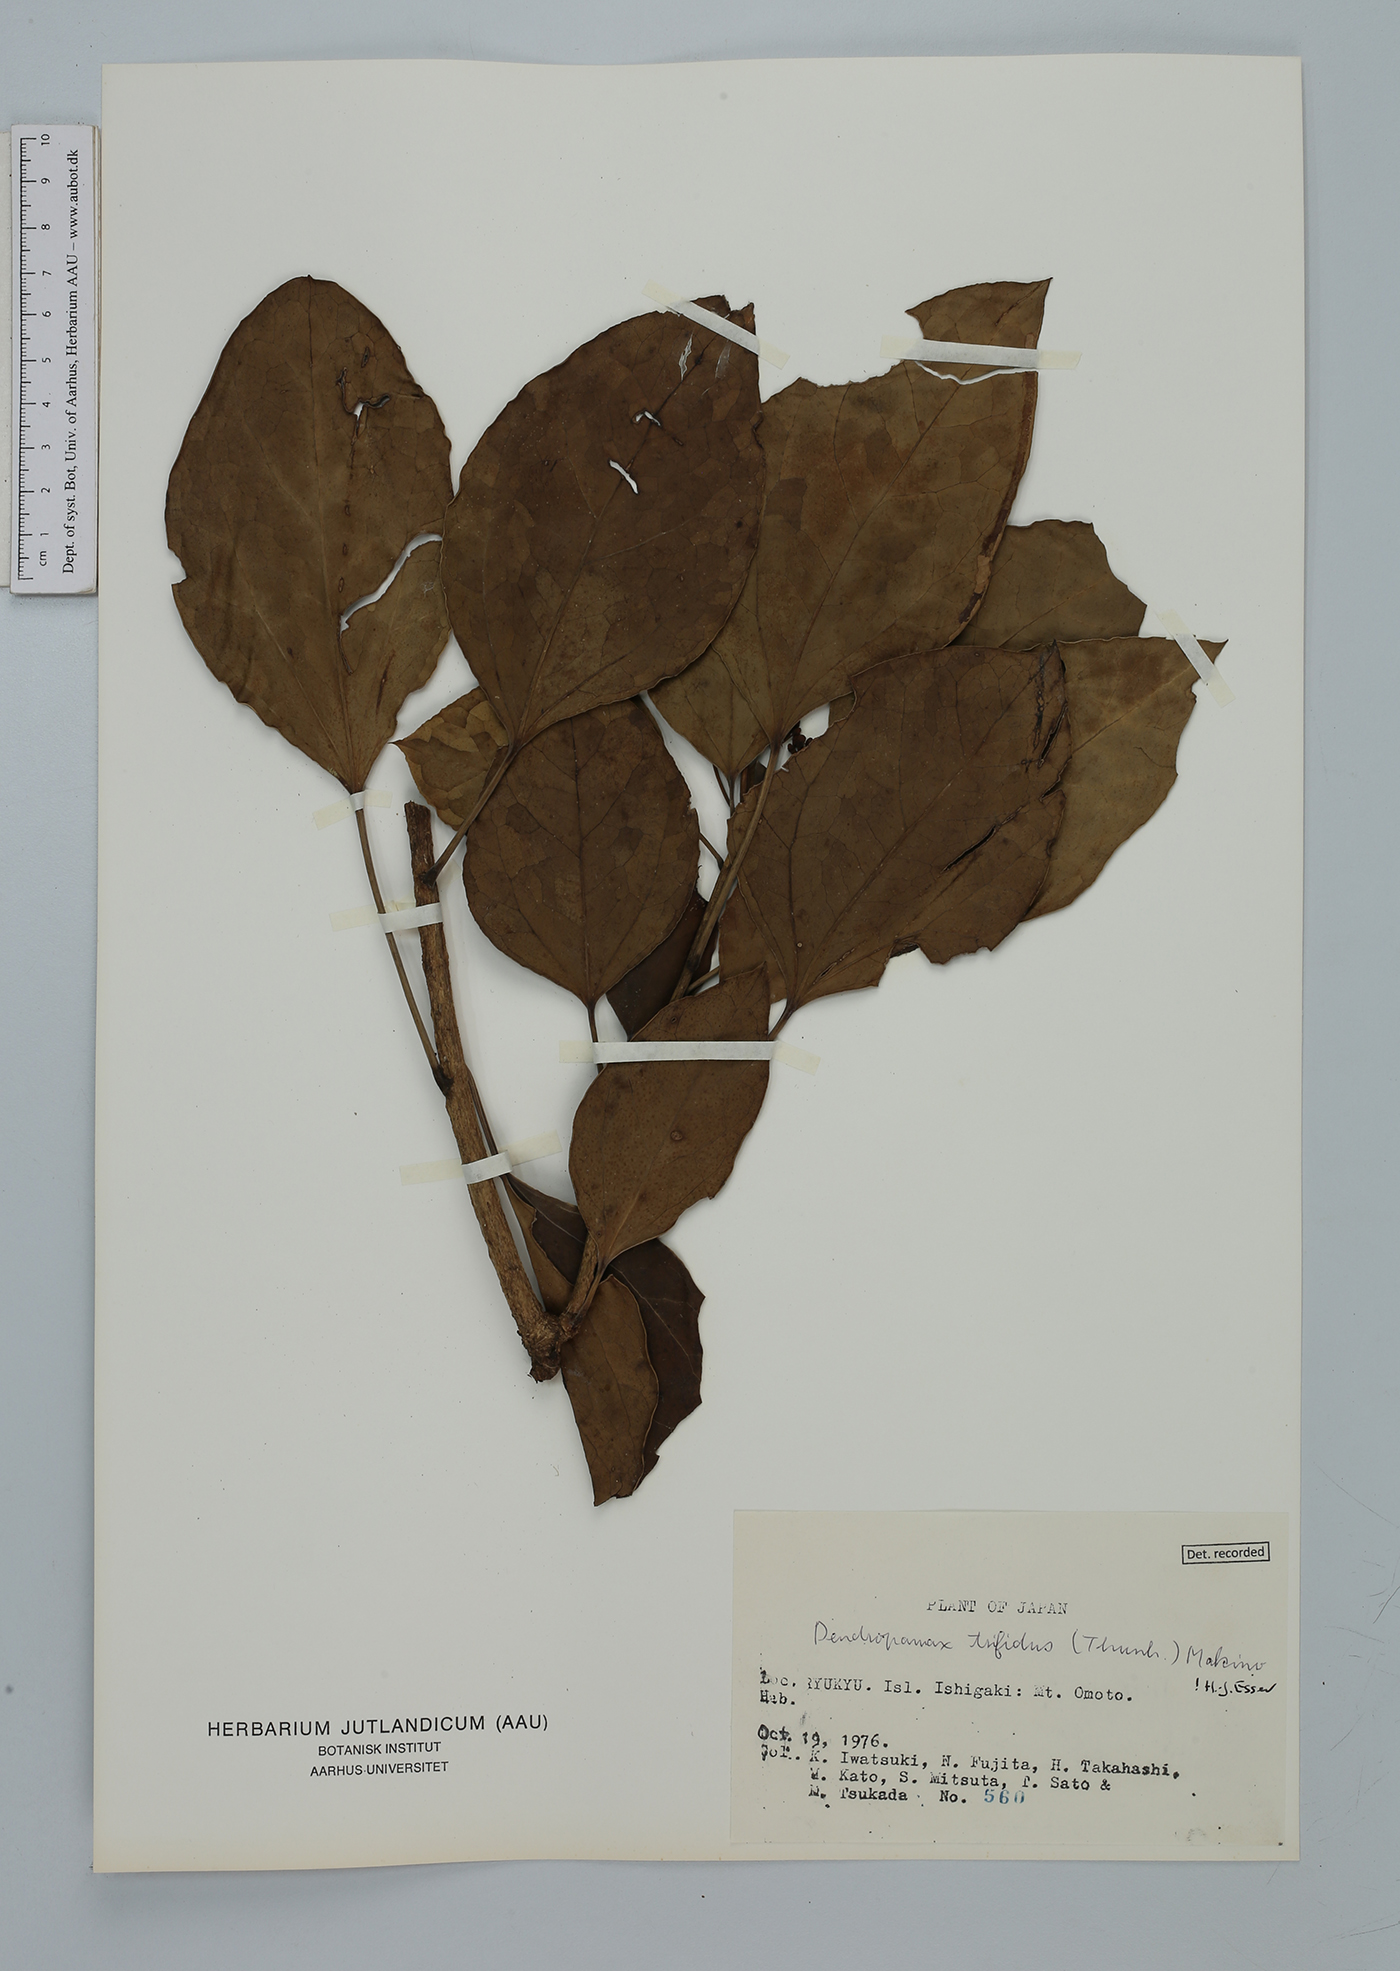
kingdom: Plantae
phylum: Tracheophyta
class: Magnoliopsida
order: Apiales
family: Araliaceae
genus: Dendropanax
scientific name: Dendropanax trifidus
